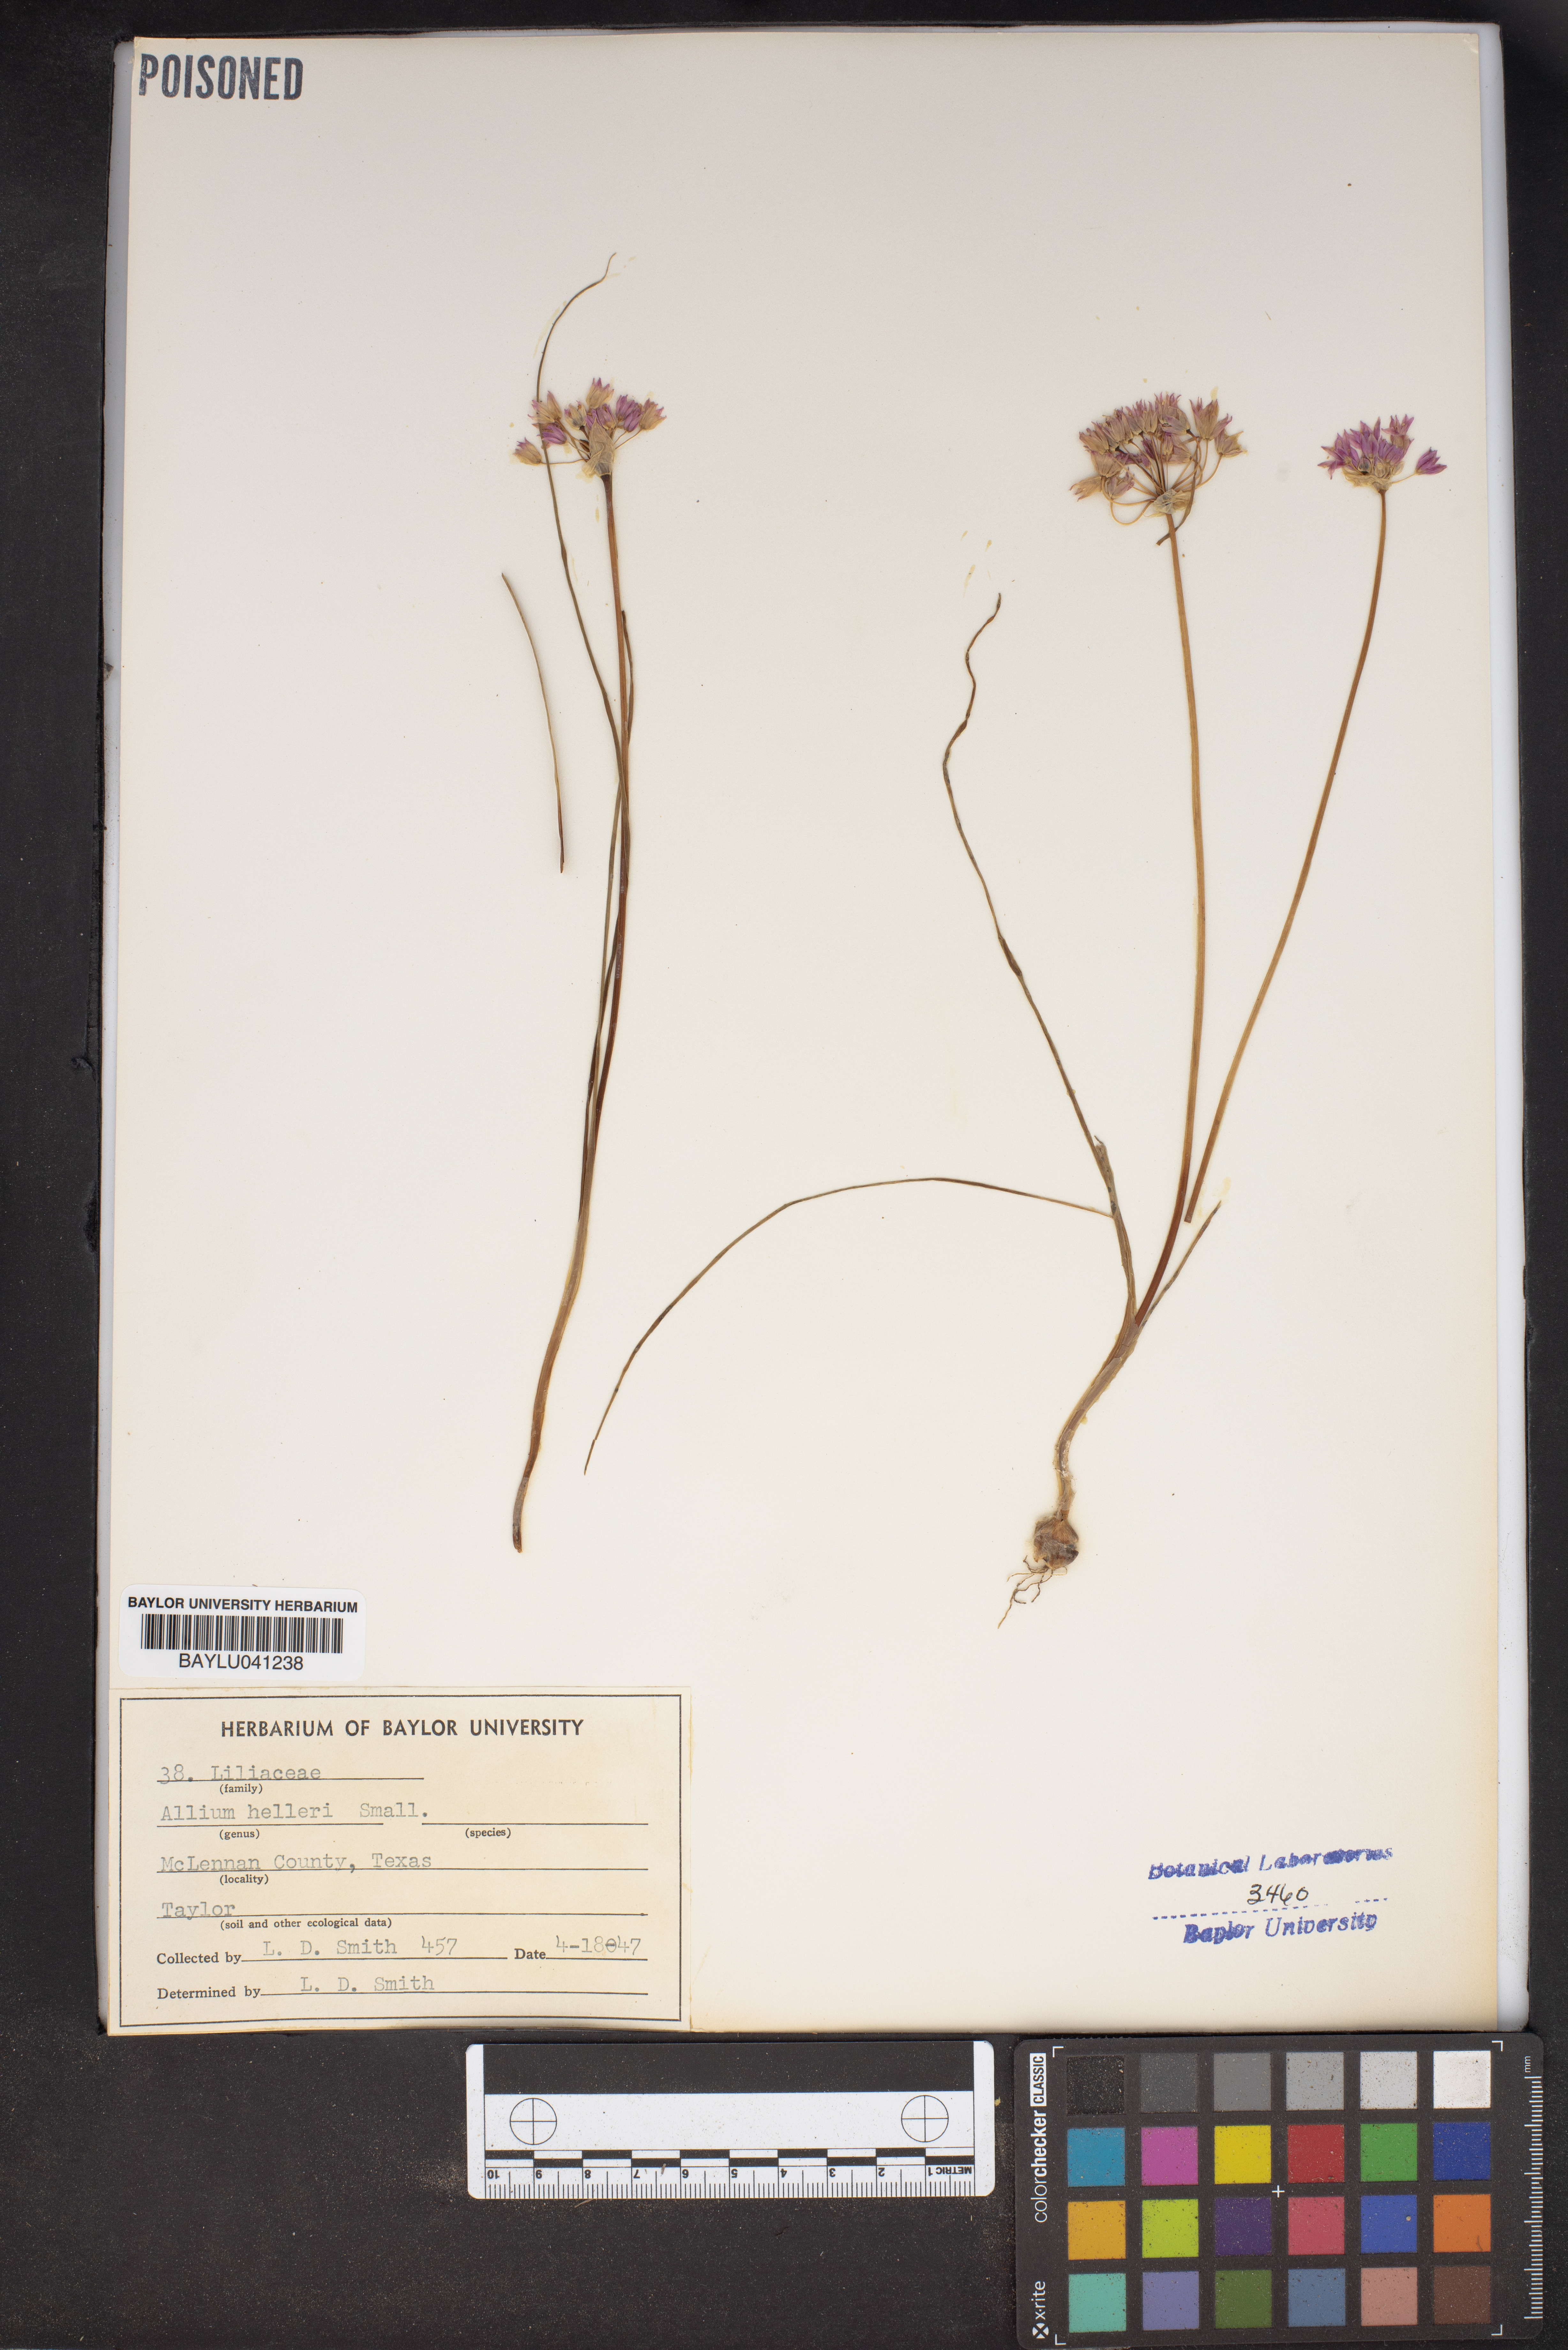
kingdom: Plantae
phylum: Tracheophyta
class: Liliopsida
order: Asparagales
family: Amaryllidaceae
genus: Allium
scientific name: Allium drummondii
